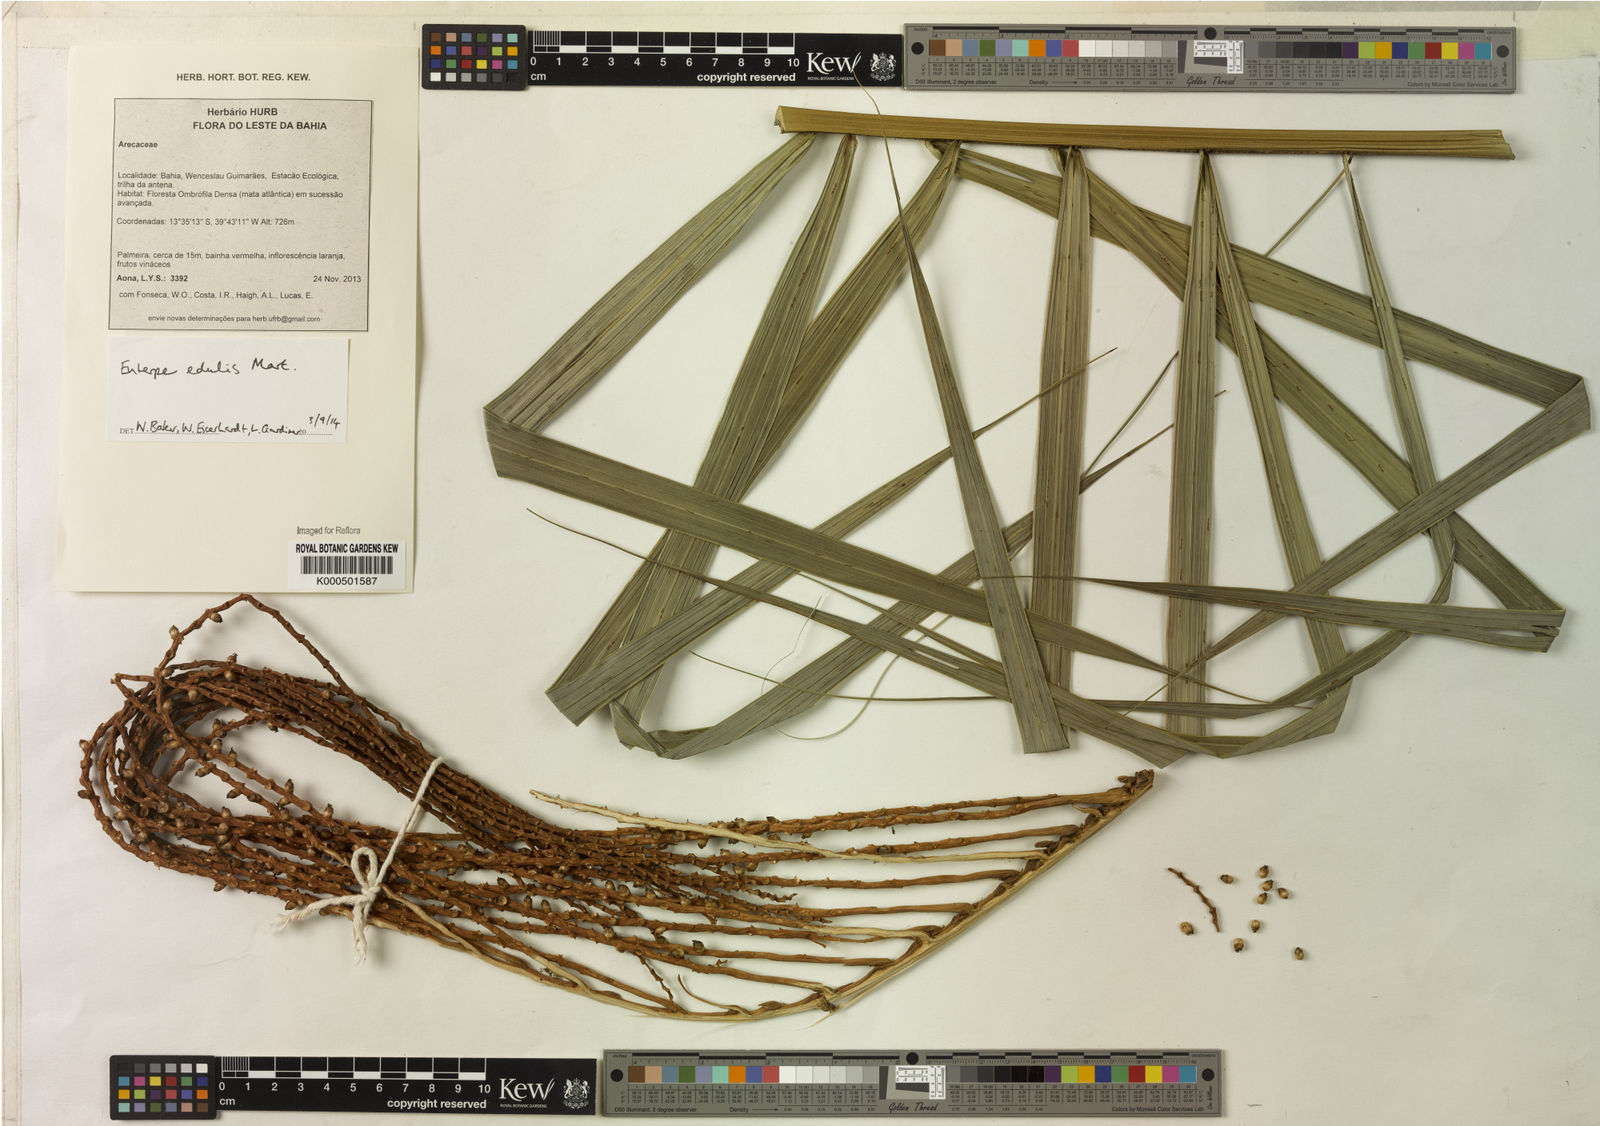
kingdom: Plantae
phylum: Tracheophyta
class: Liliopsida
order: Arecales
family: Arecaceae
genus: Euterpe
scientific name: Euterpe edulis
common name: Assai palm
